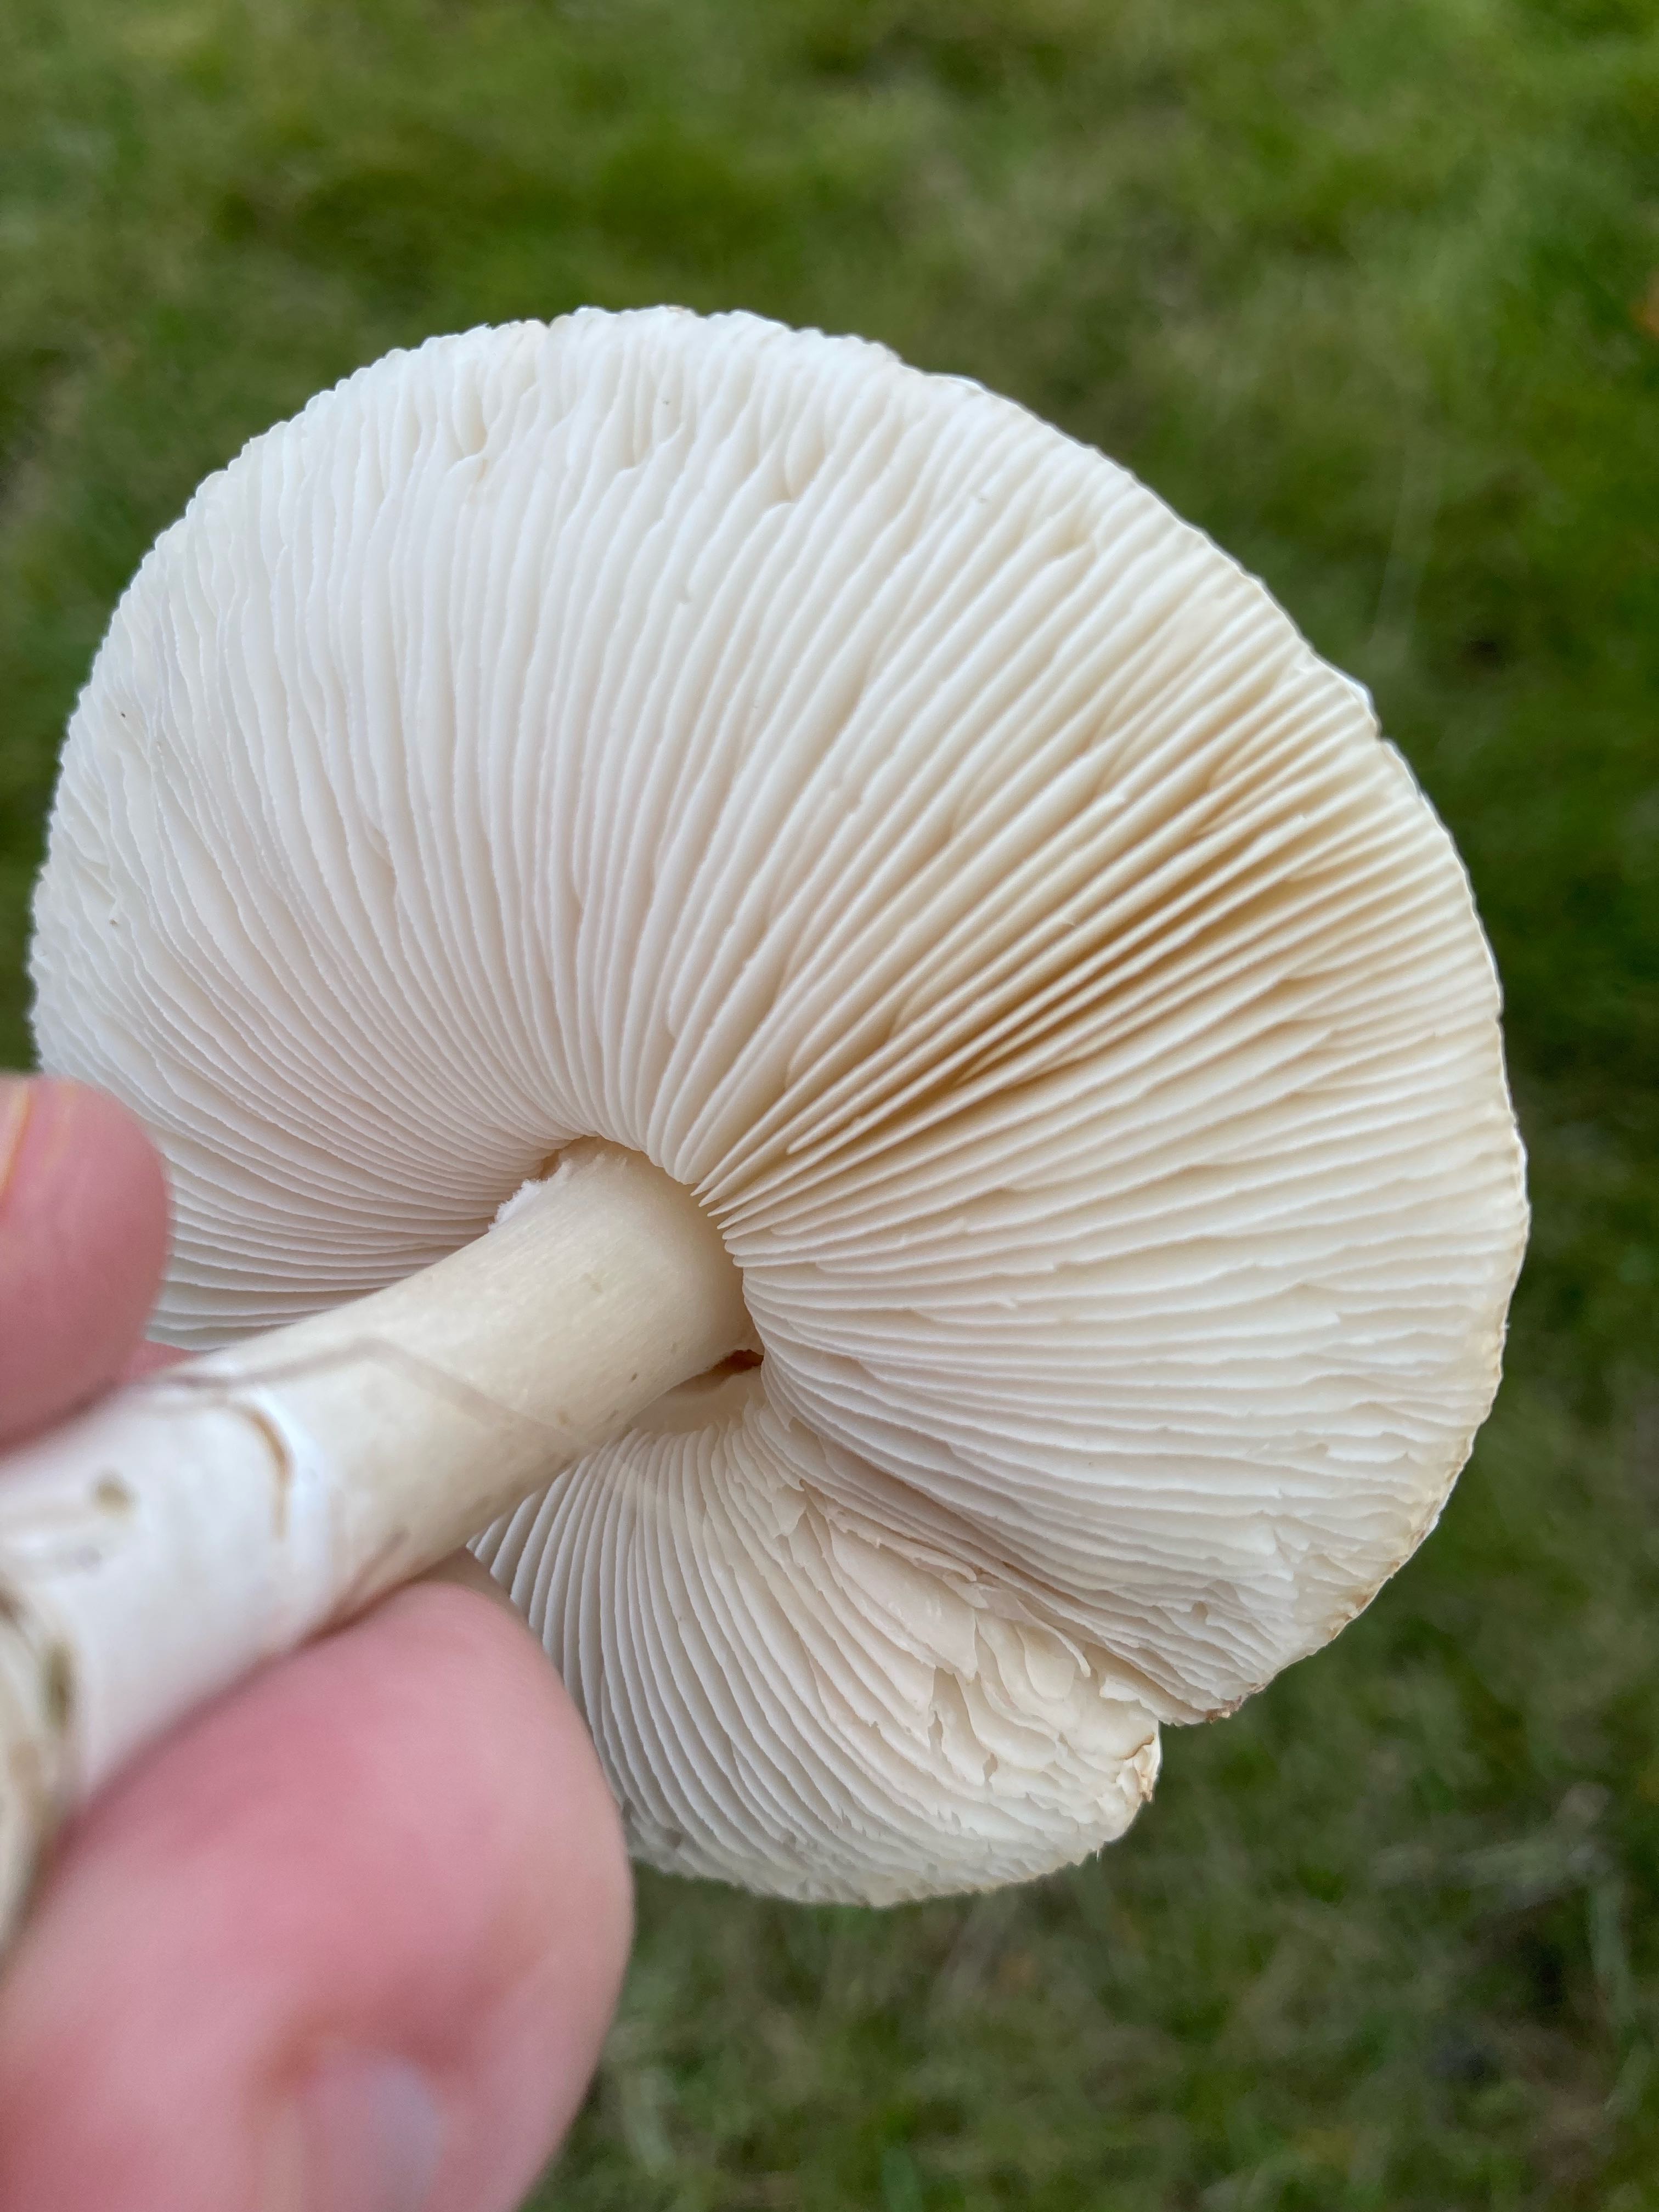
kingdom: Fungi
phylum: Basidiomycota
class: Agaricomycetes
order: Agaricales
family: Agaricaceae
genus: Leucoagaricus
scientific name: Leucoagaricus leucothites
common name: rosabladet silkehat
